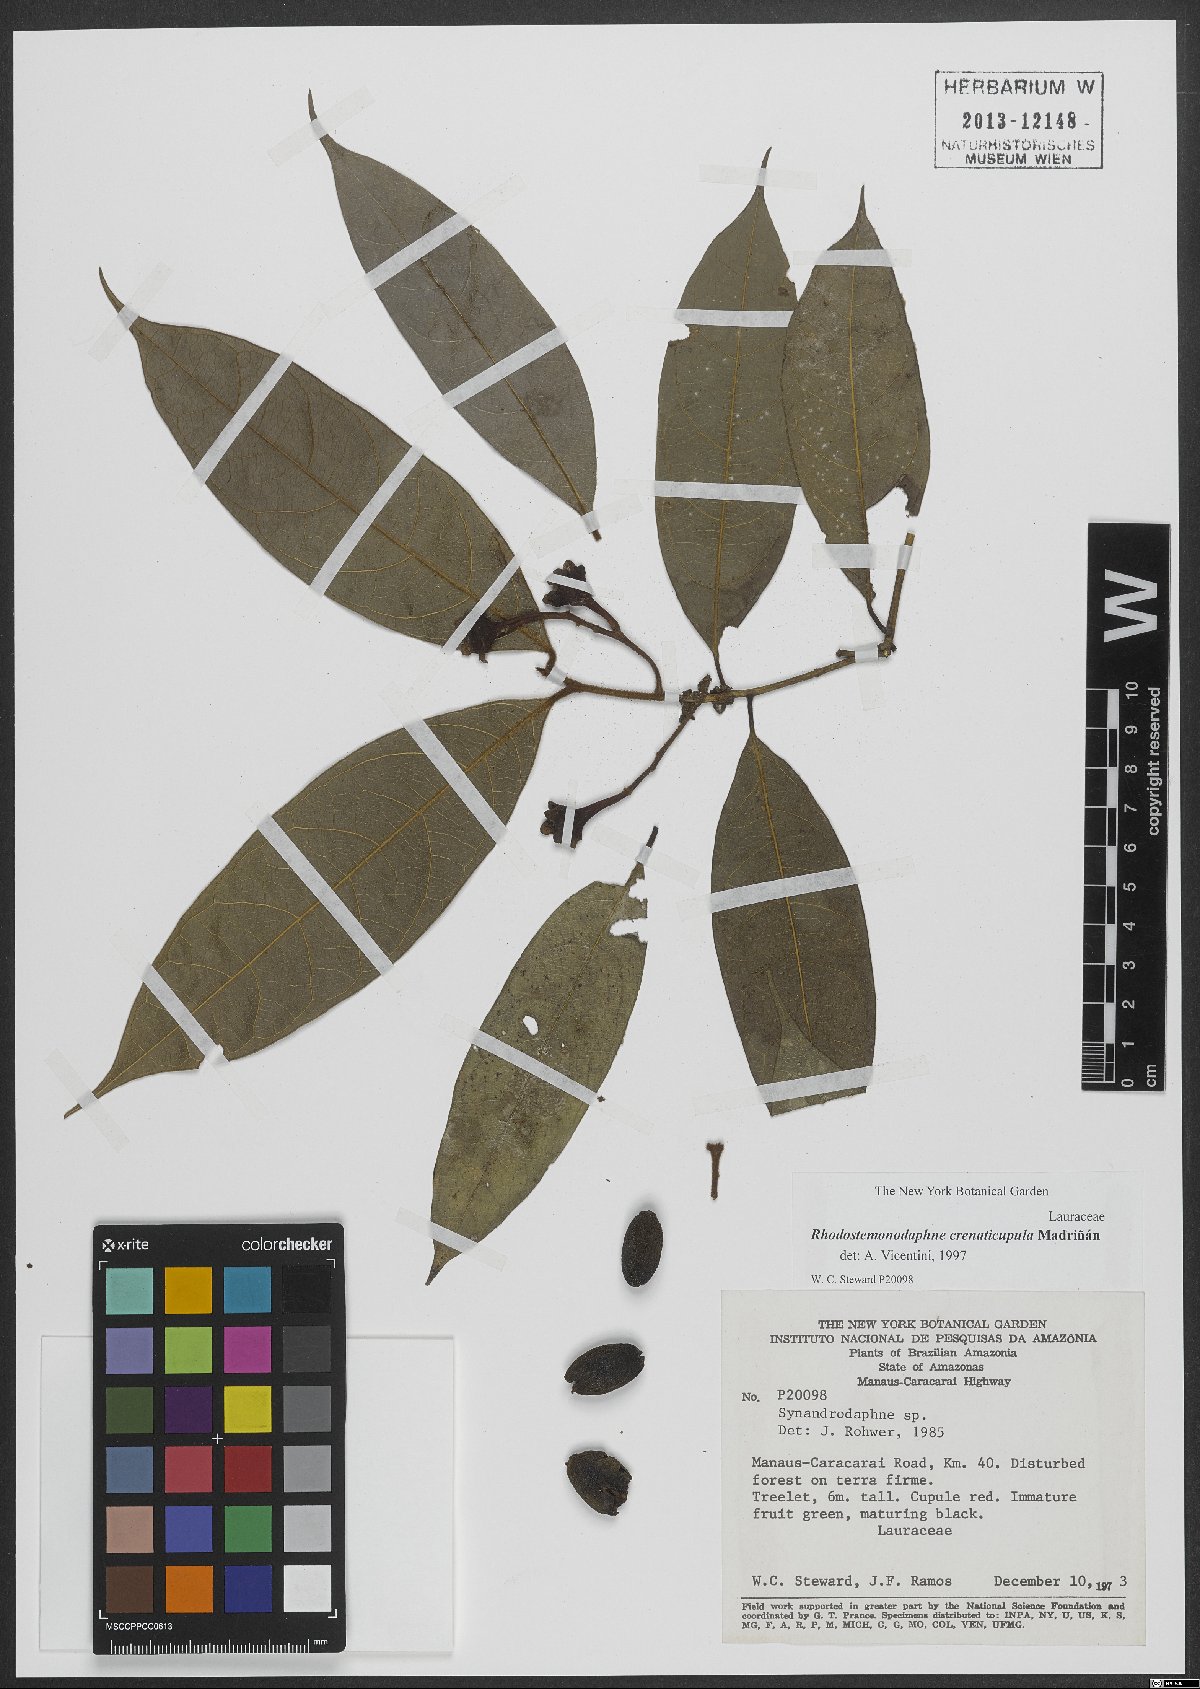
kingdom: Plantae
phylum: Tracheophyta
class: Magnoliopsida
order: Laurales
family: Lauraceae
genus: Rhodostemonodaphne
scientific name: Rhodostemonodaphne crenaticupula
